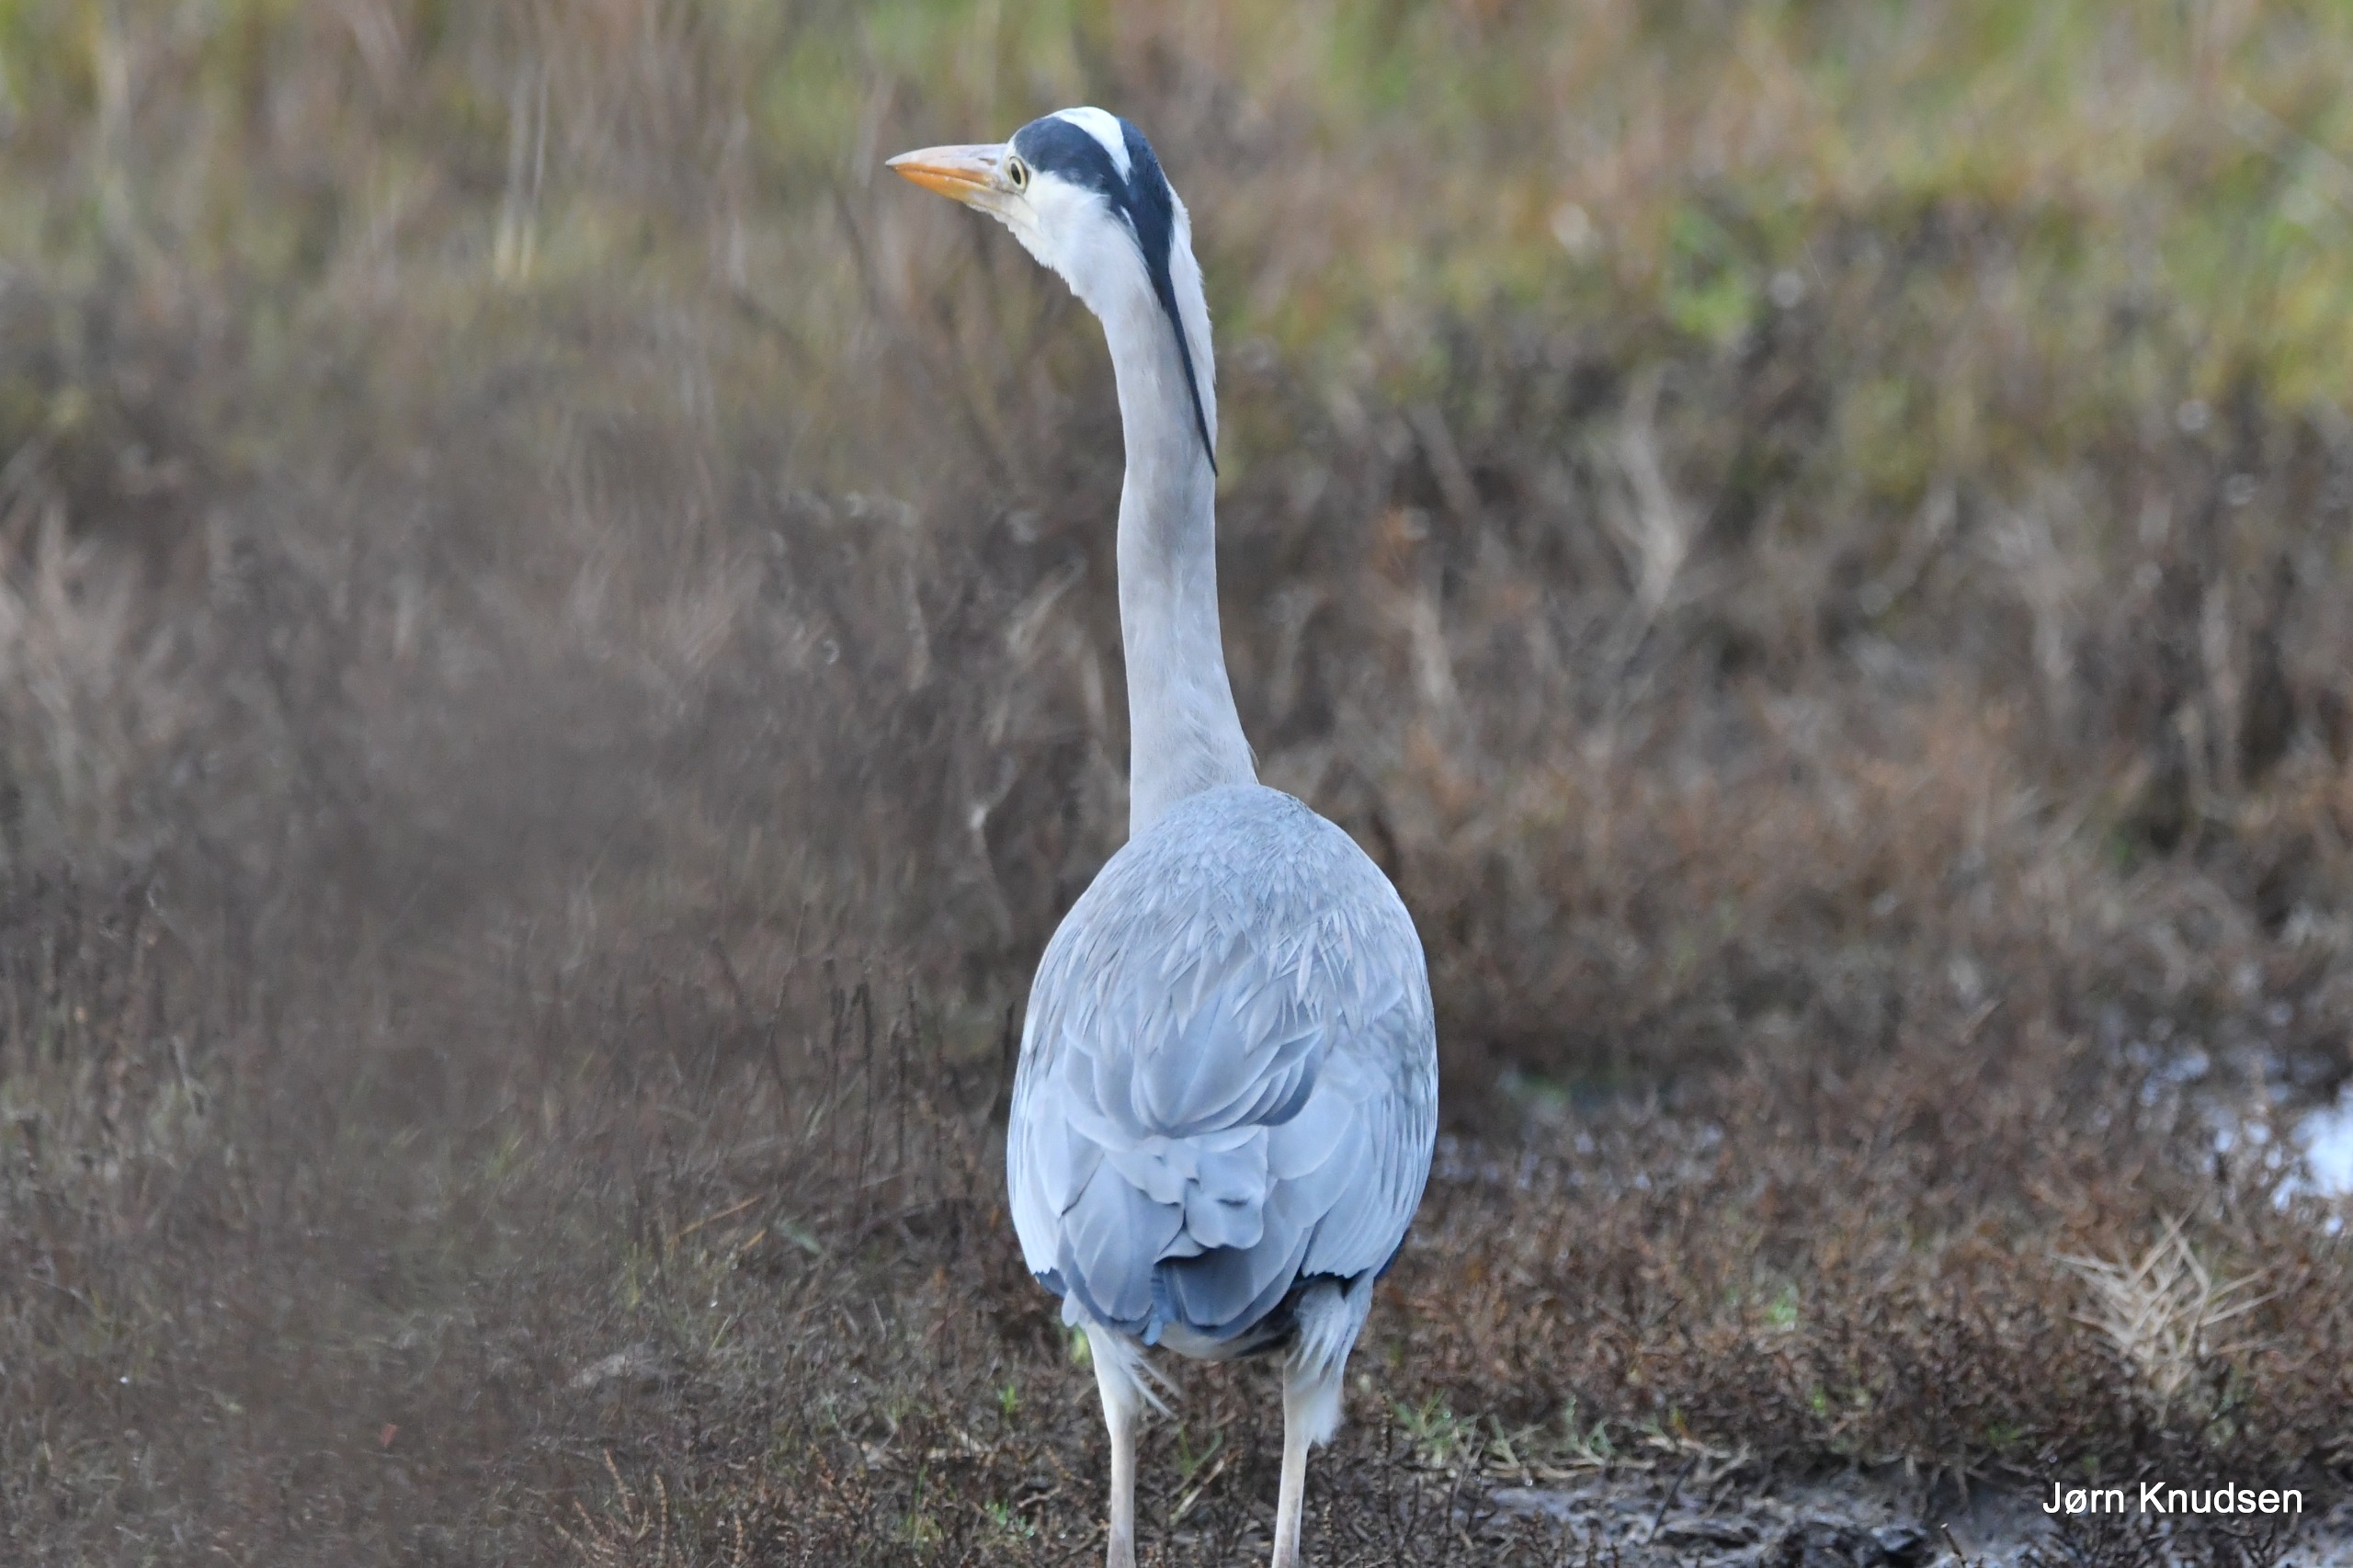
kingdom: Animalia
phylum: Chordata
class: Aves
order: Pelecaniformes
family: Ardeidae
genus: Ardea
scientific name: Ardea cinerea
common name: Fiskehejre
